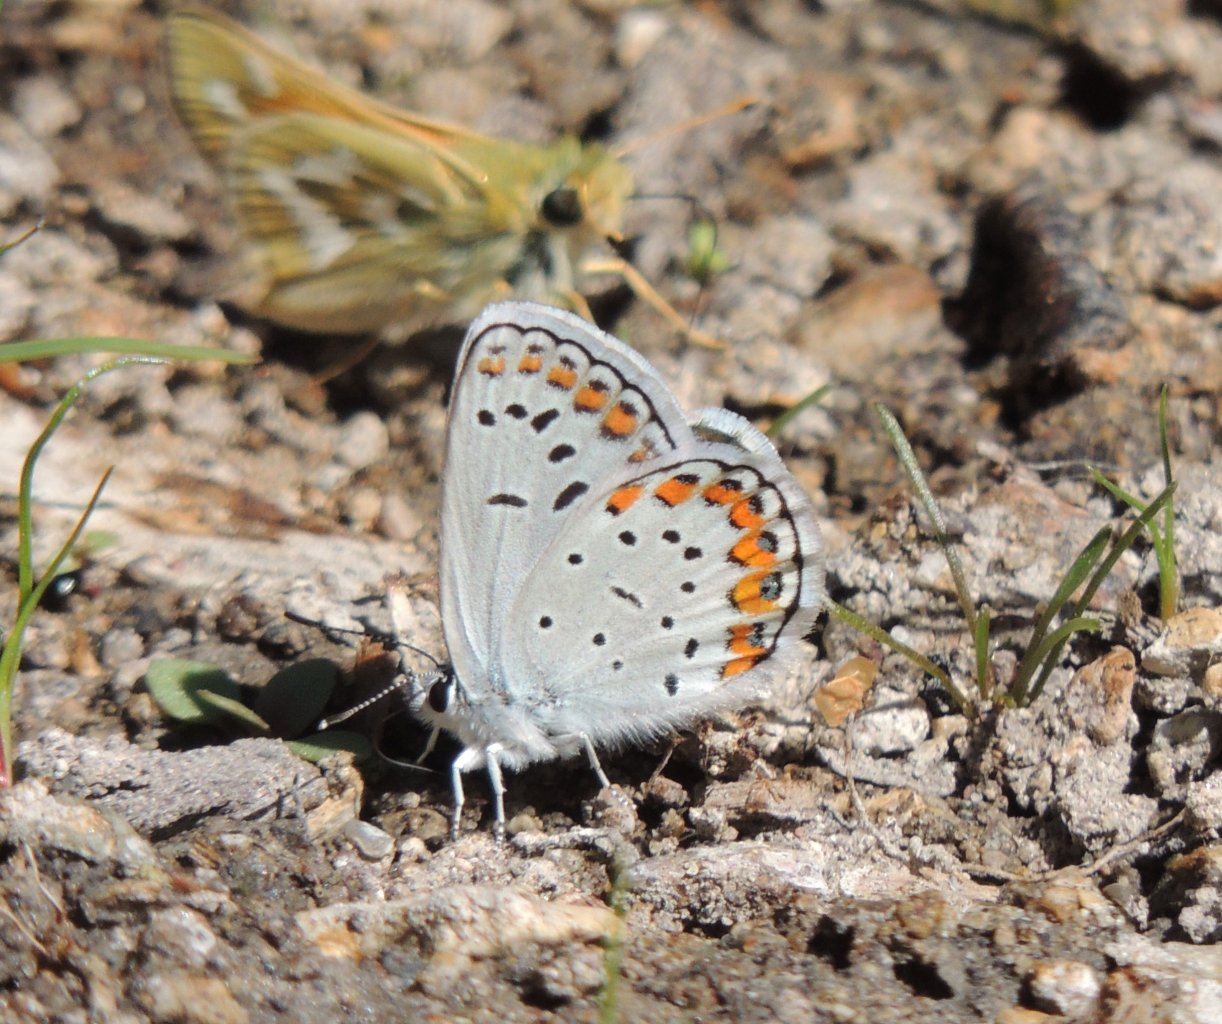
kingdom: Animalia
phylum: Arthropoda
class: Insecta
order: Lepidoptera
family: Lycaenidae
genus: Lycaeides
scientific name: Lycaeides melissa
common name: Melissa Blue
